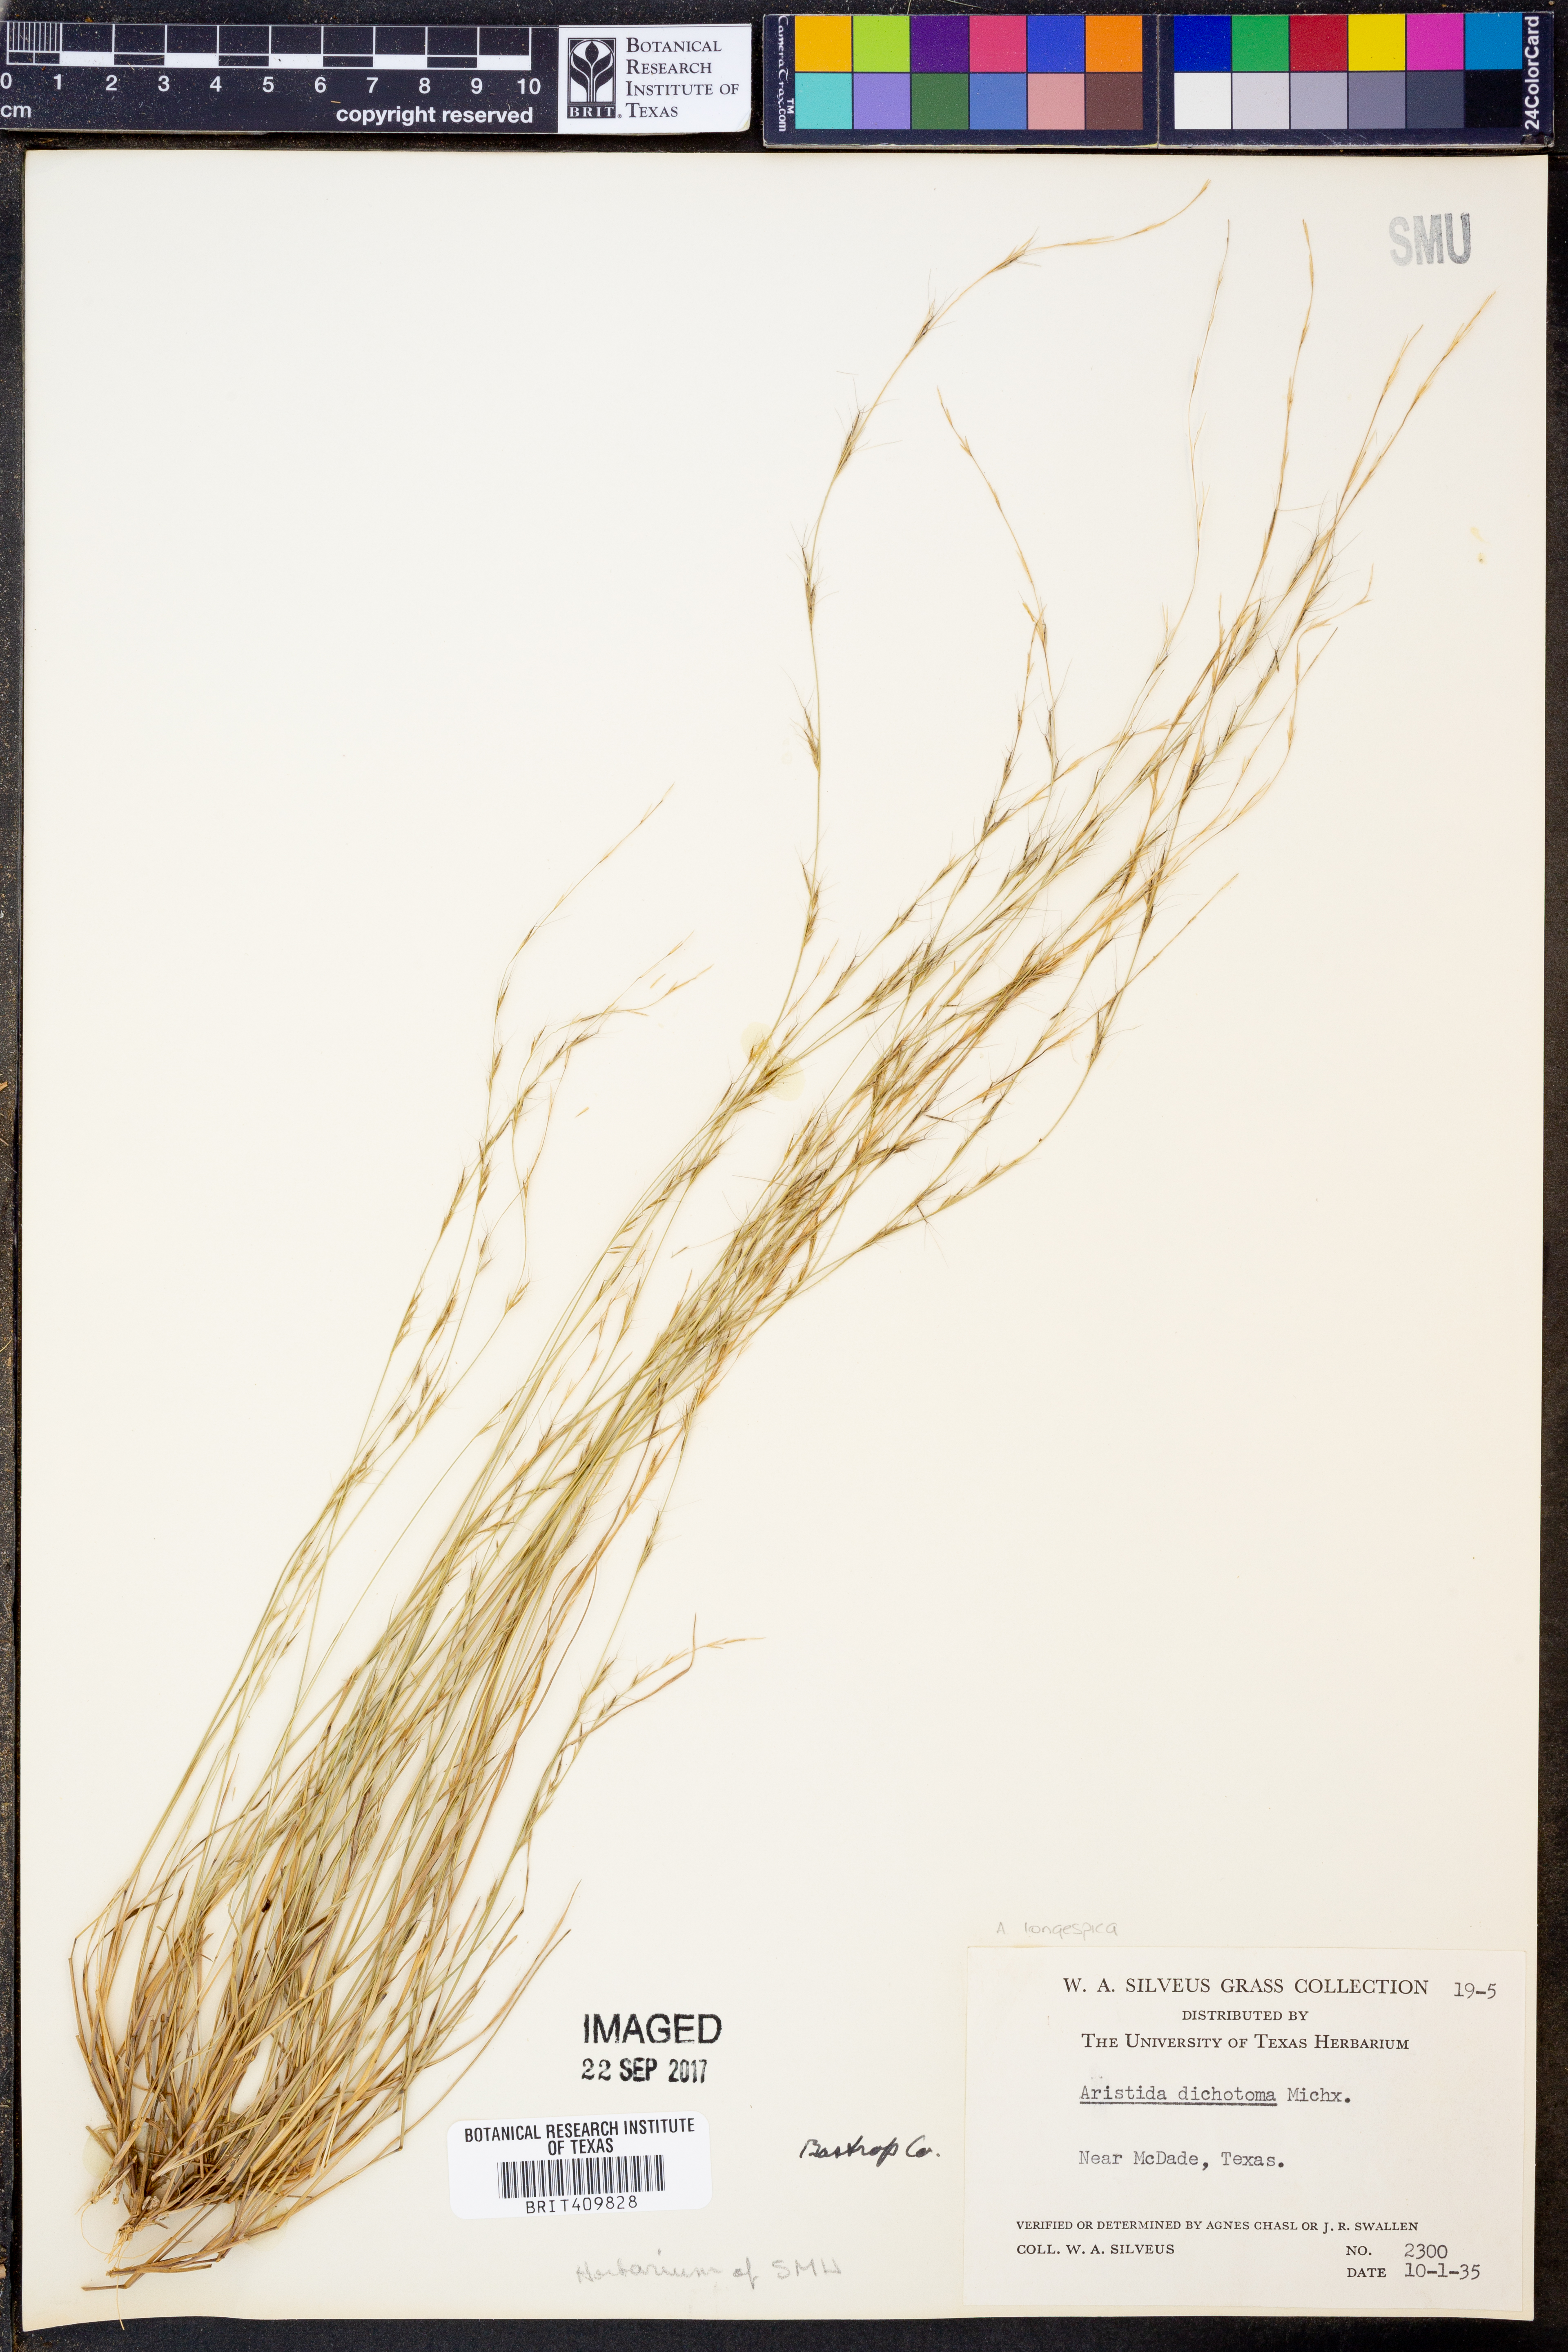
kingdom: Plantae
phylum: Tracheophyta
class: Liliopsida
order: Poales
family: Poaceae
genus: Aristida
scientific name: Aristida dichotoma
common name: Churchmouse three-awn
